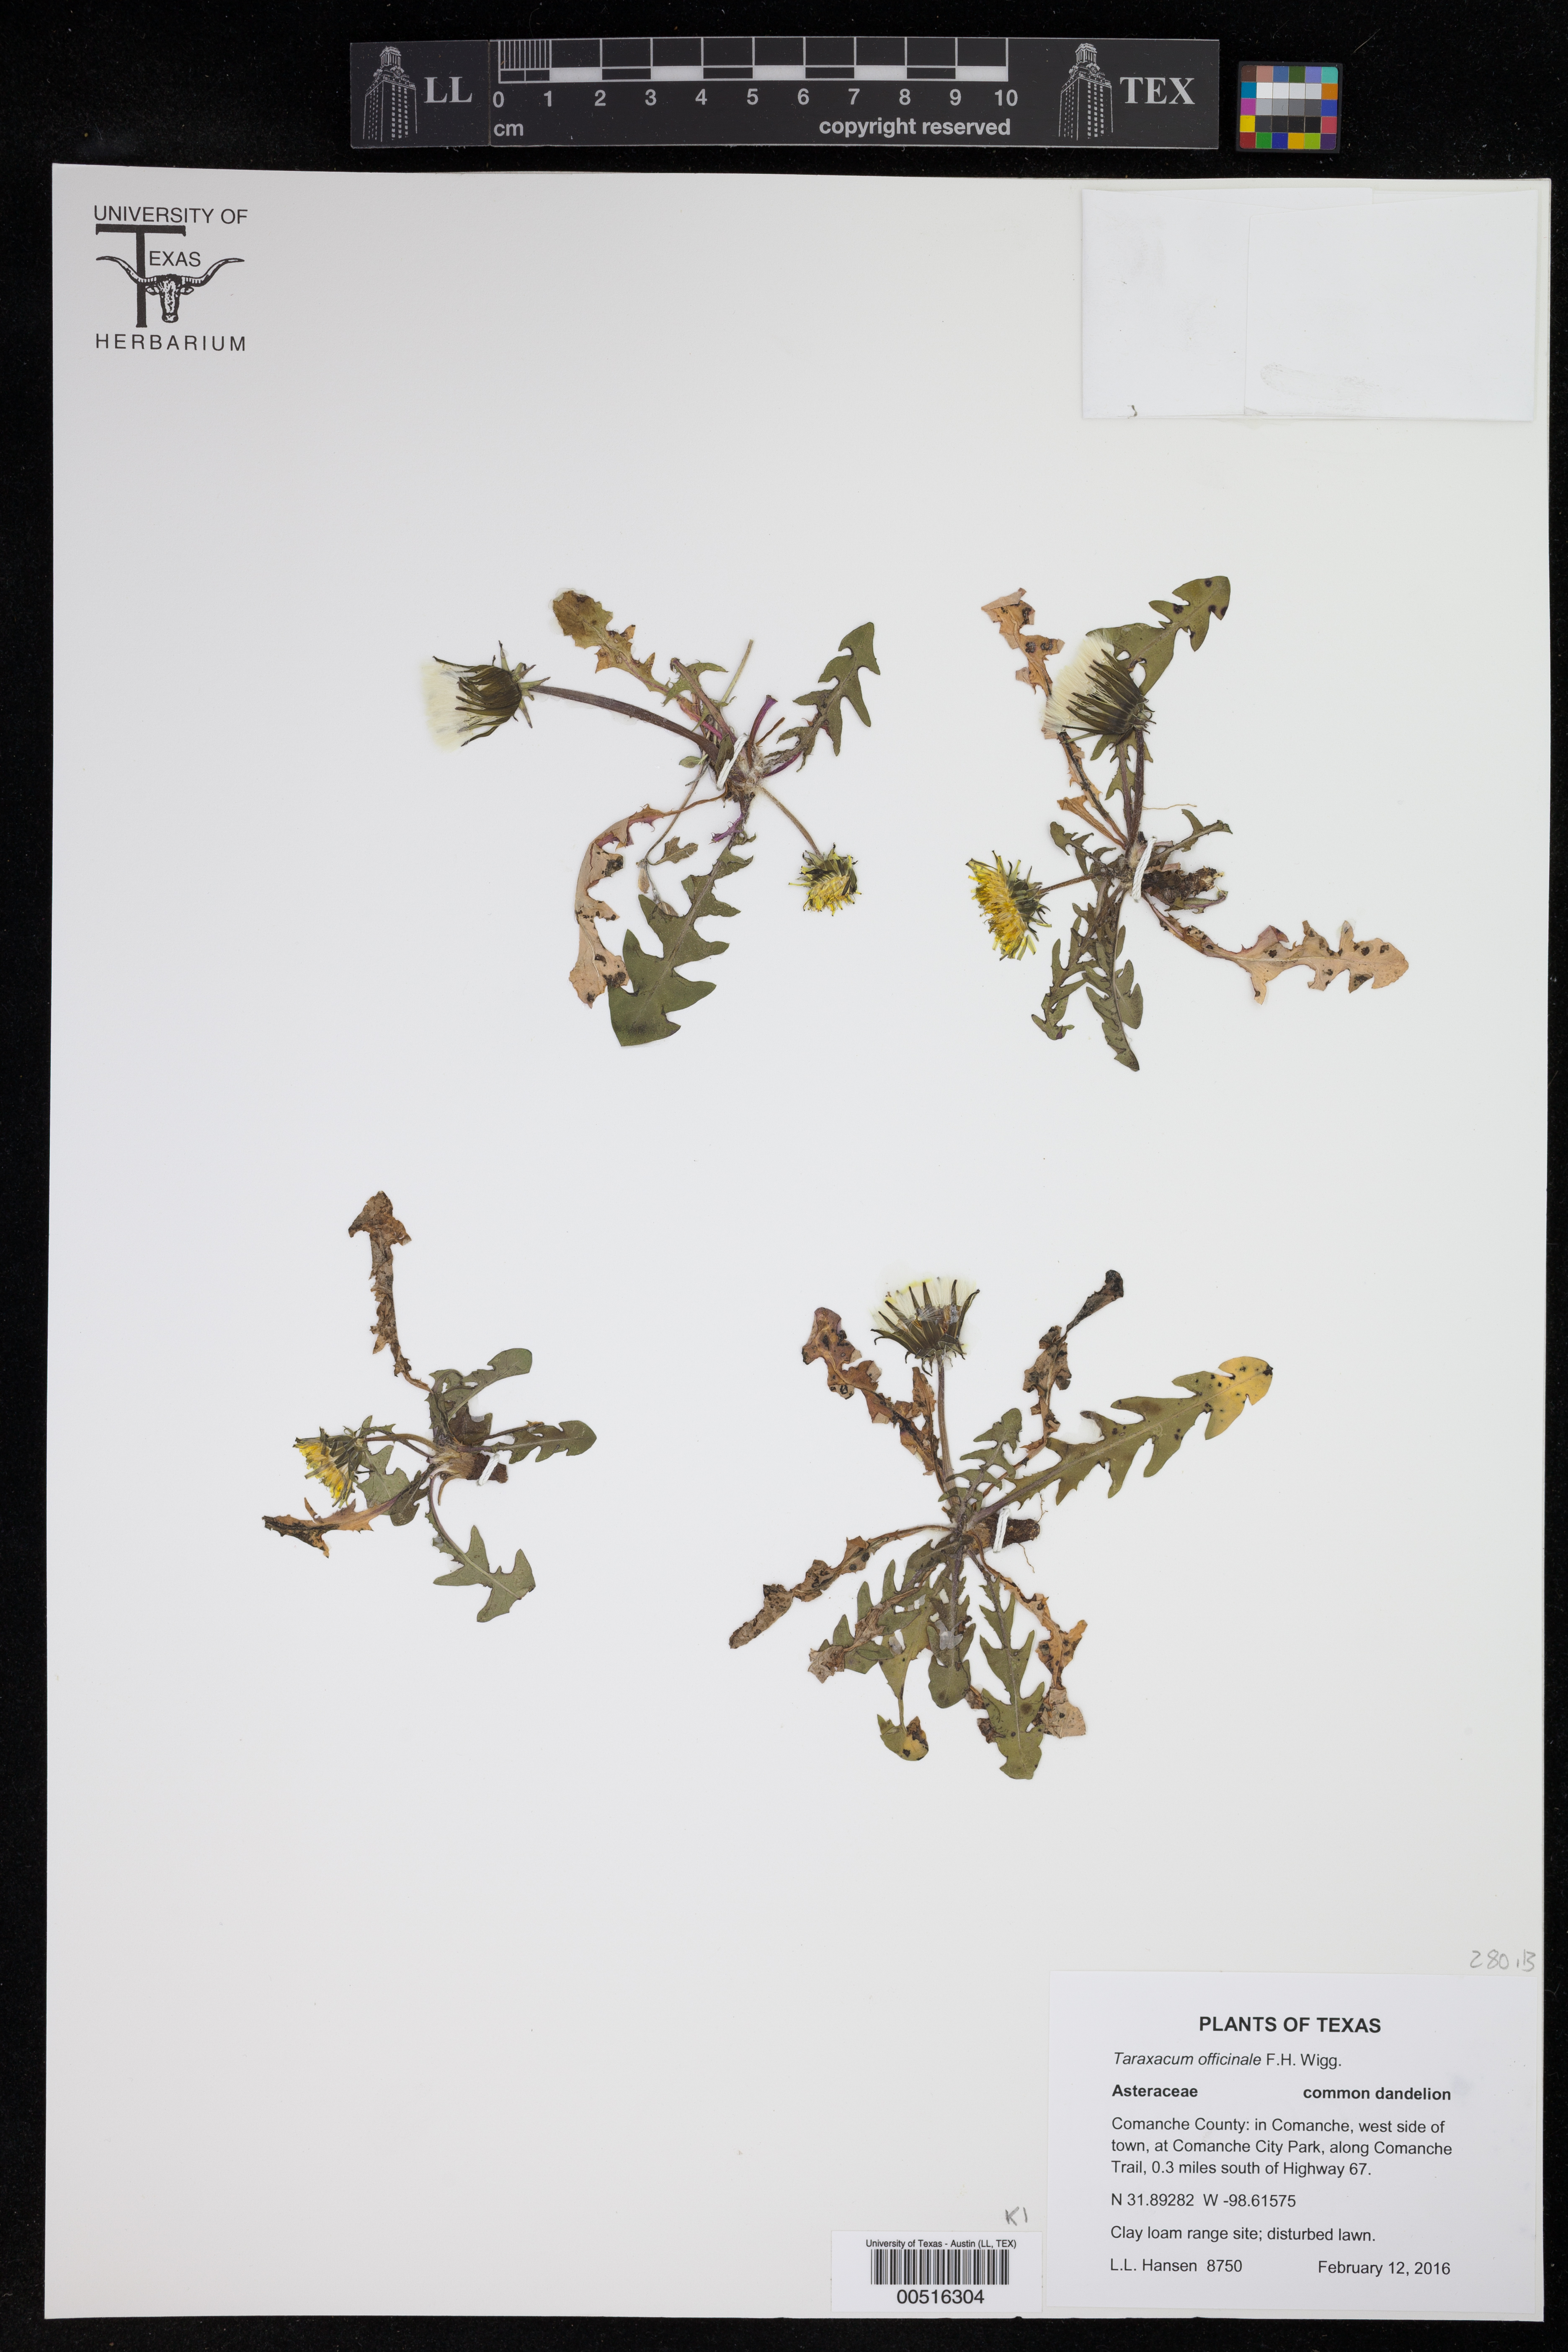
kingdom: Plantae
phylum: Tracheophyta
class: Magnoliopsida
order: Asterales
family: Asteraceae
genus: Taraxacum
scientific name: Taraxacum officinale
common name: Common dandelion
